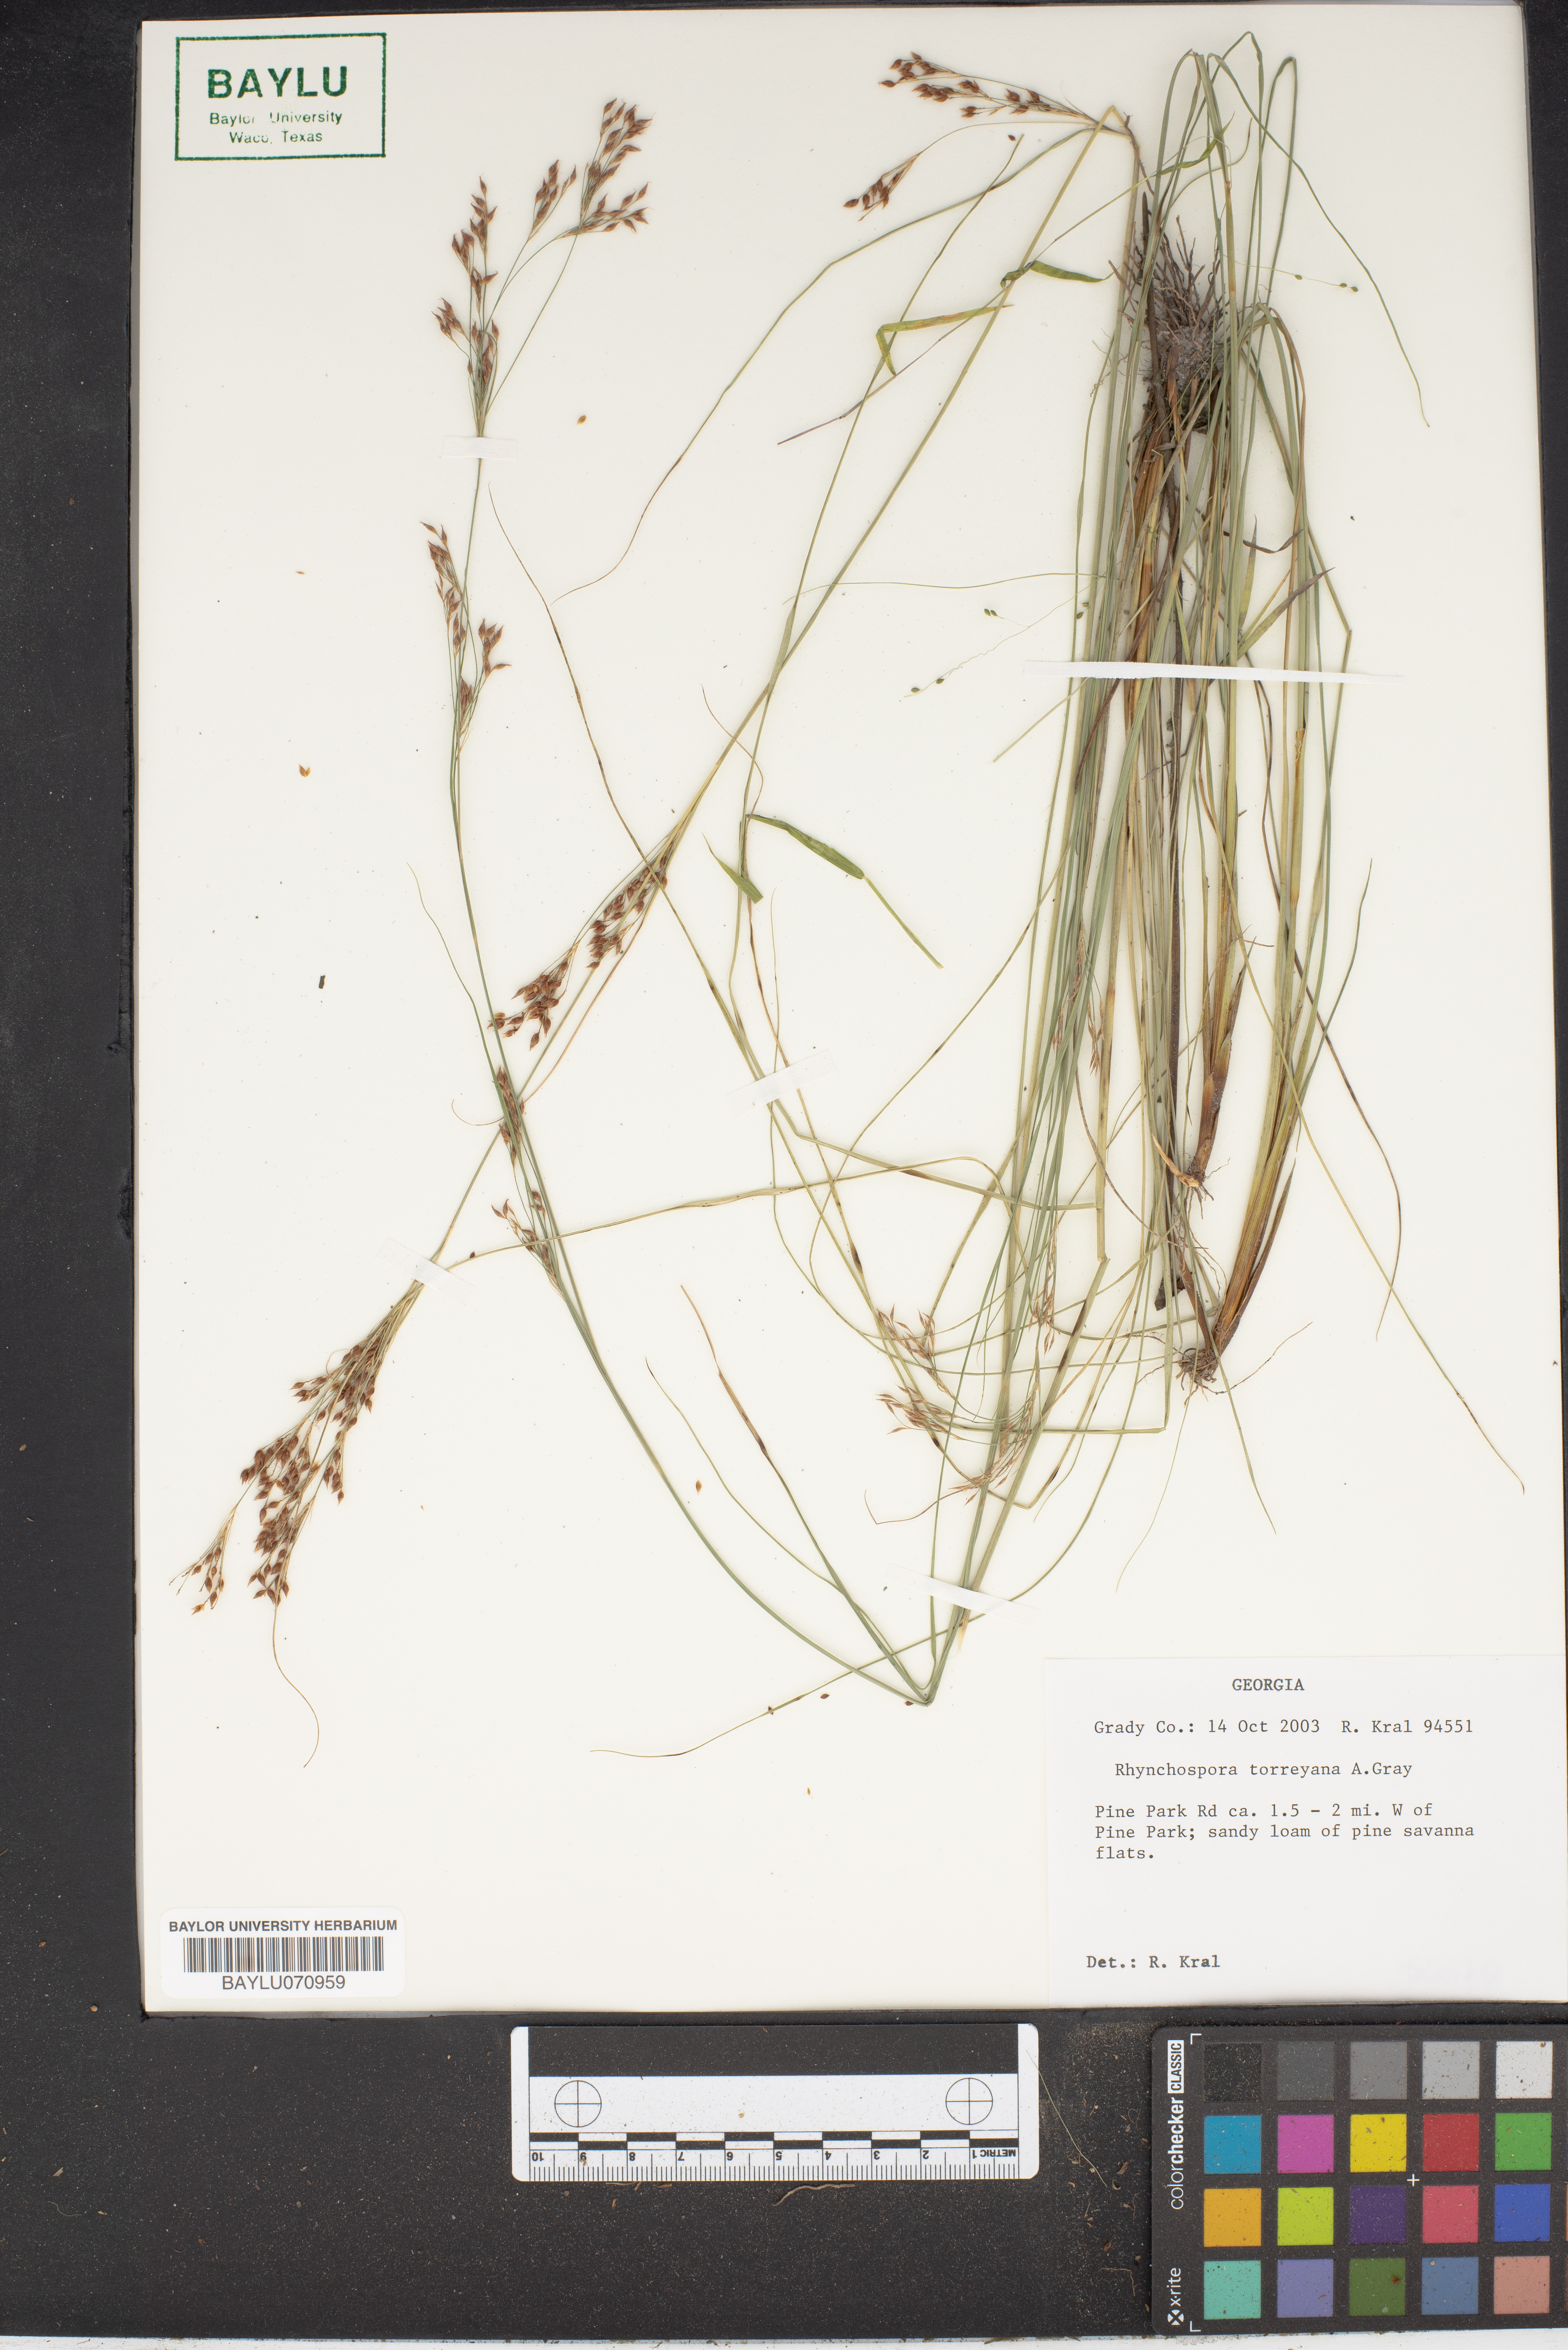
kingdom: Plantae
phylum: Tracheophyta
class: Liliopsida
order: Poales
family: Cyperaceae
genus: Rhynchospora
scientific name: Rhynchospora torreyana
